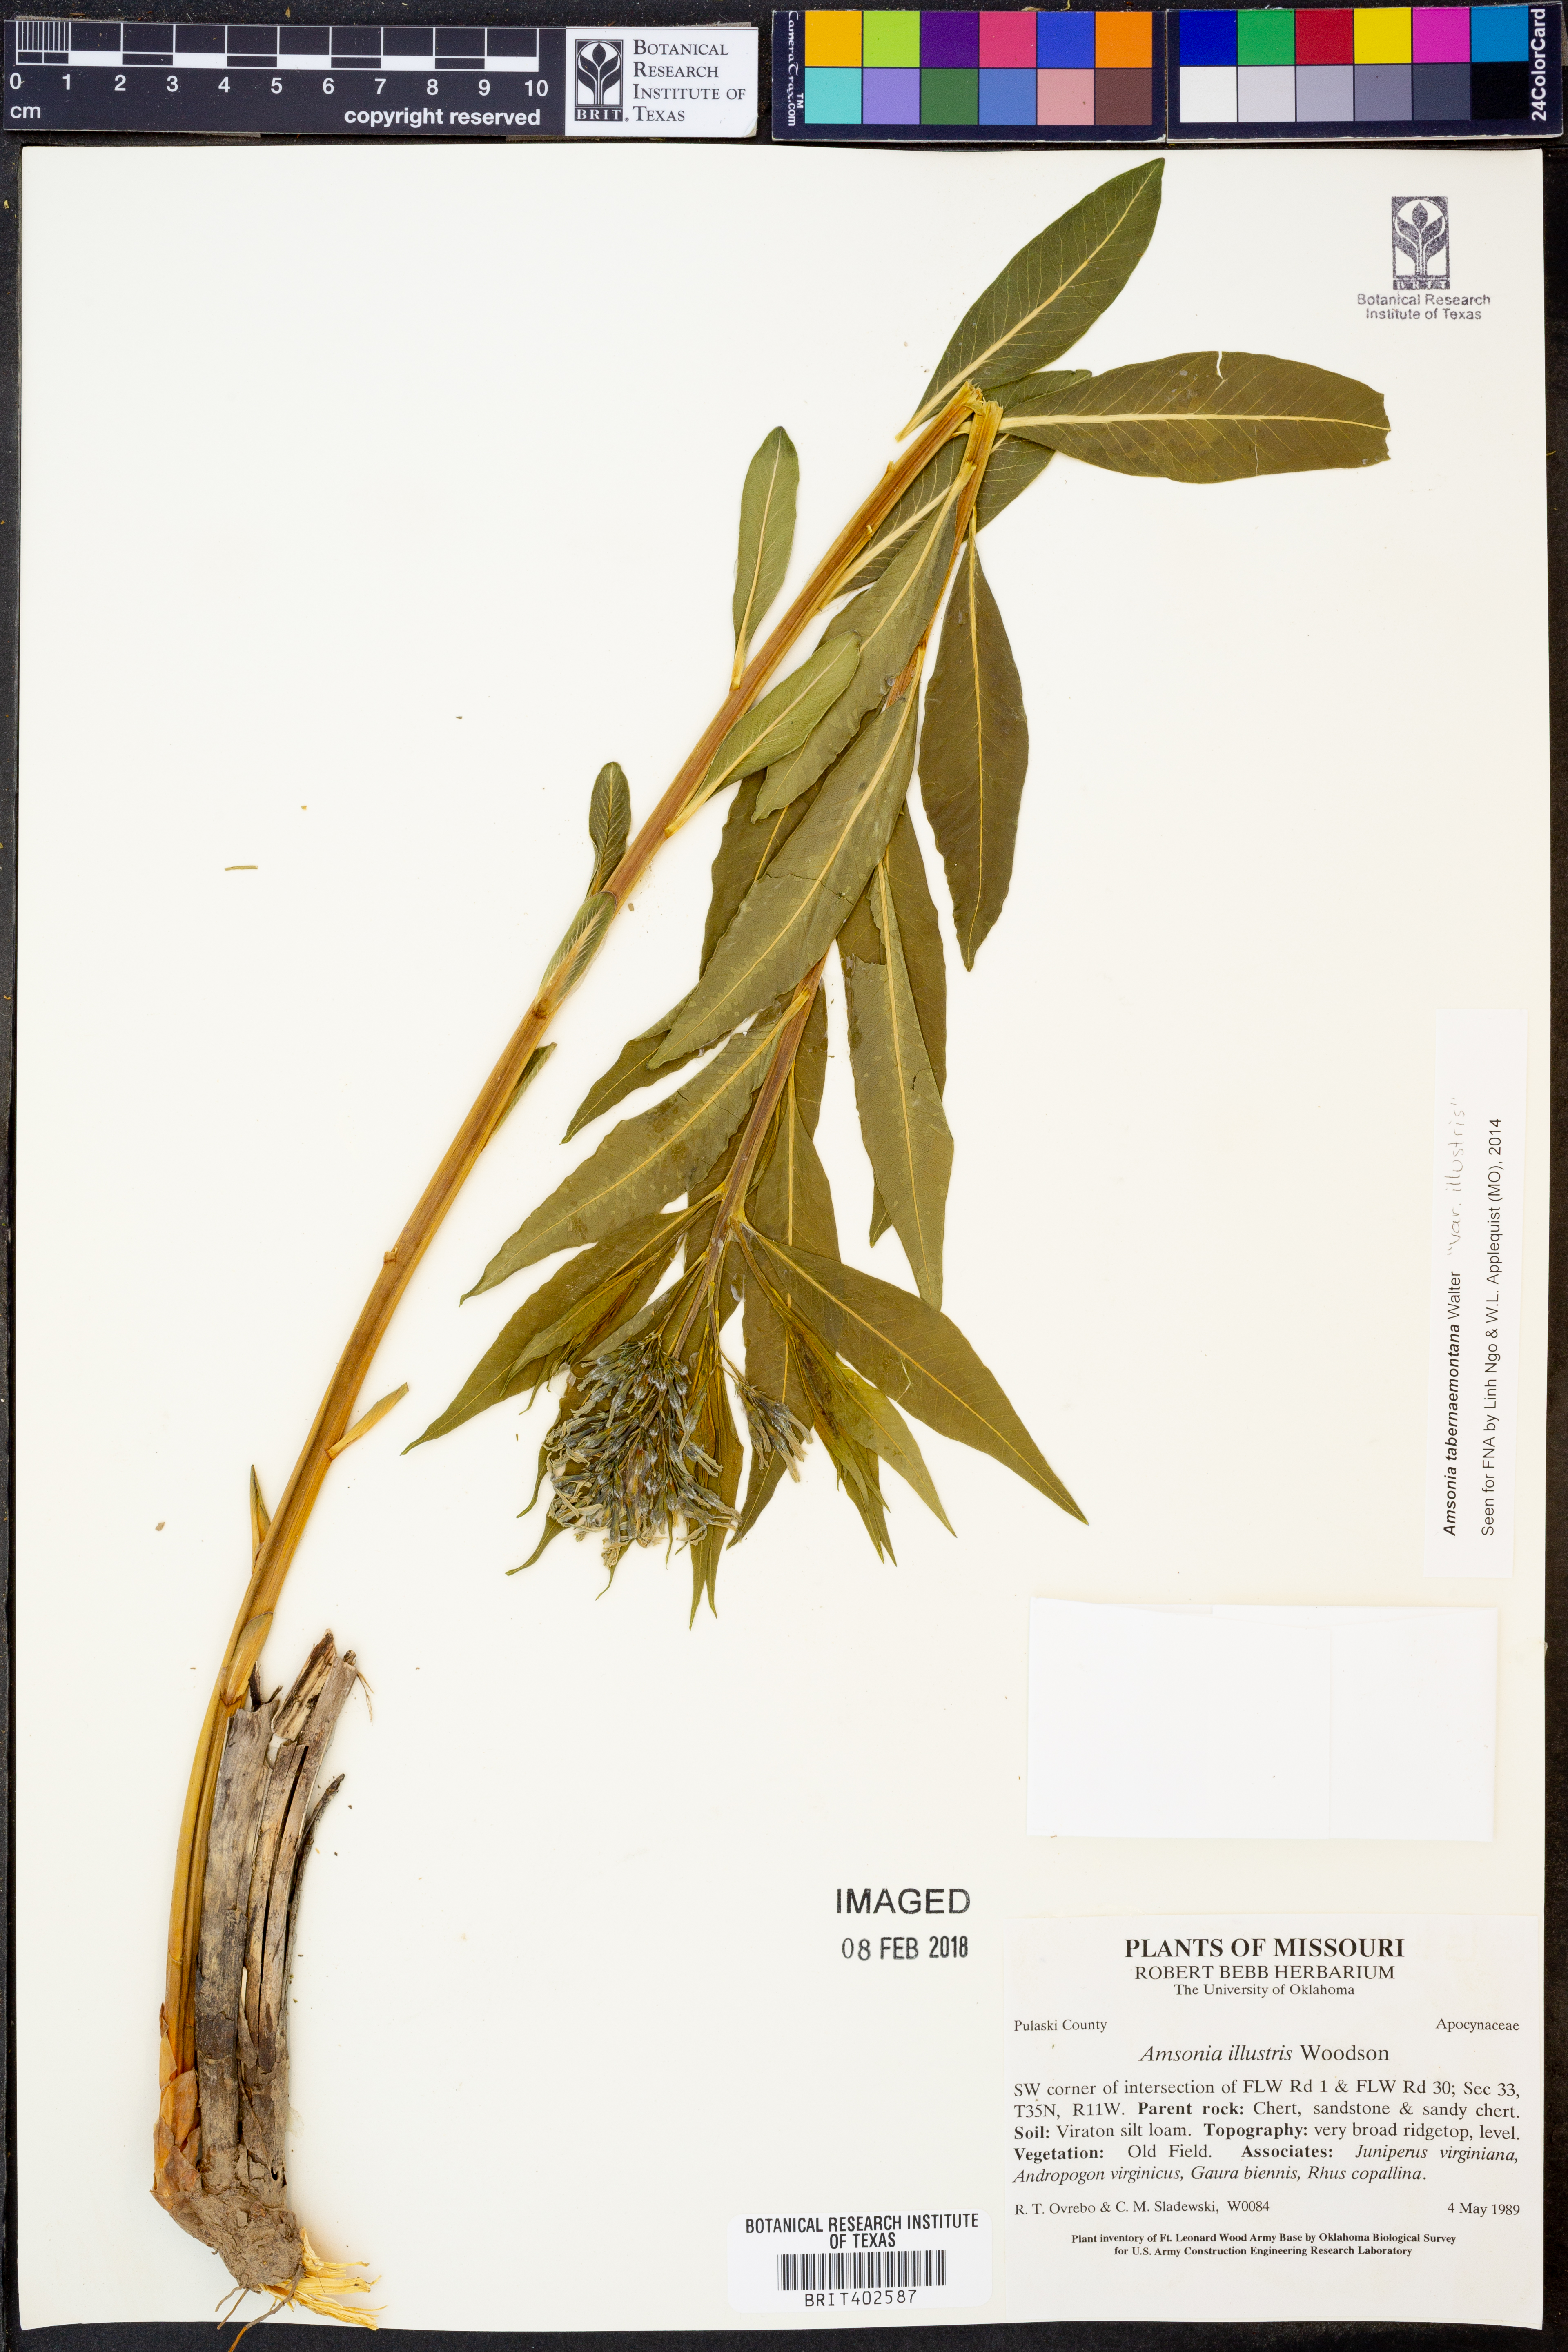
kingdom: Plantae
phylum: Tracheophyta
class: Magnoliopsida
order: Gentianales
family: Apocynaceae
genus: Amsonia
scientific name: Amsonia tabernaemontana
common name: Texas-star
